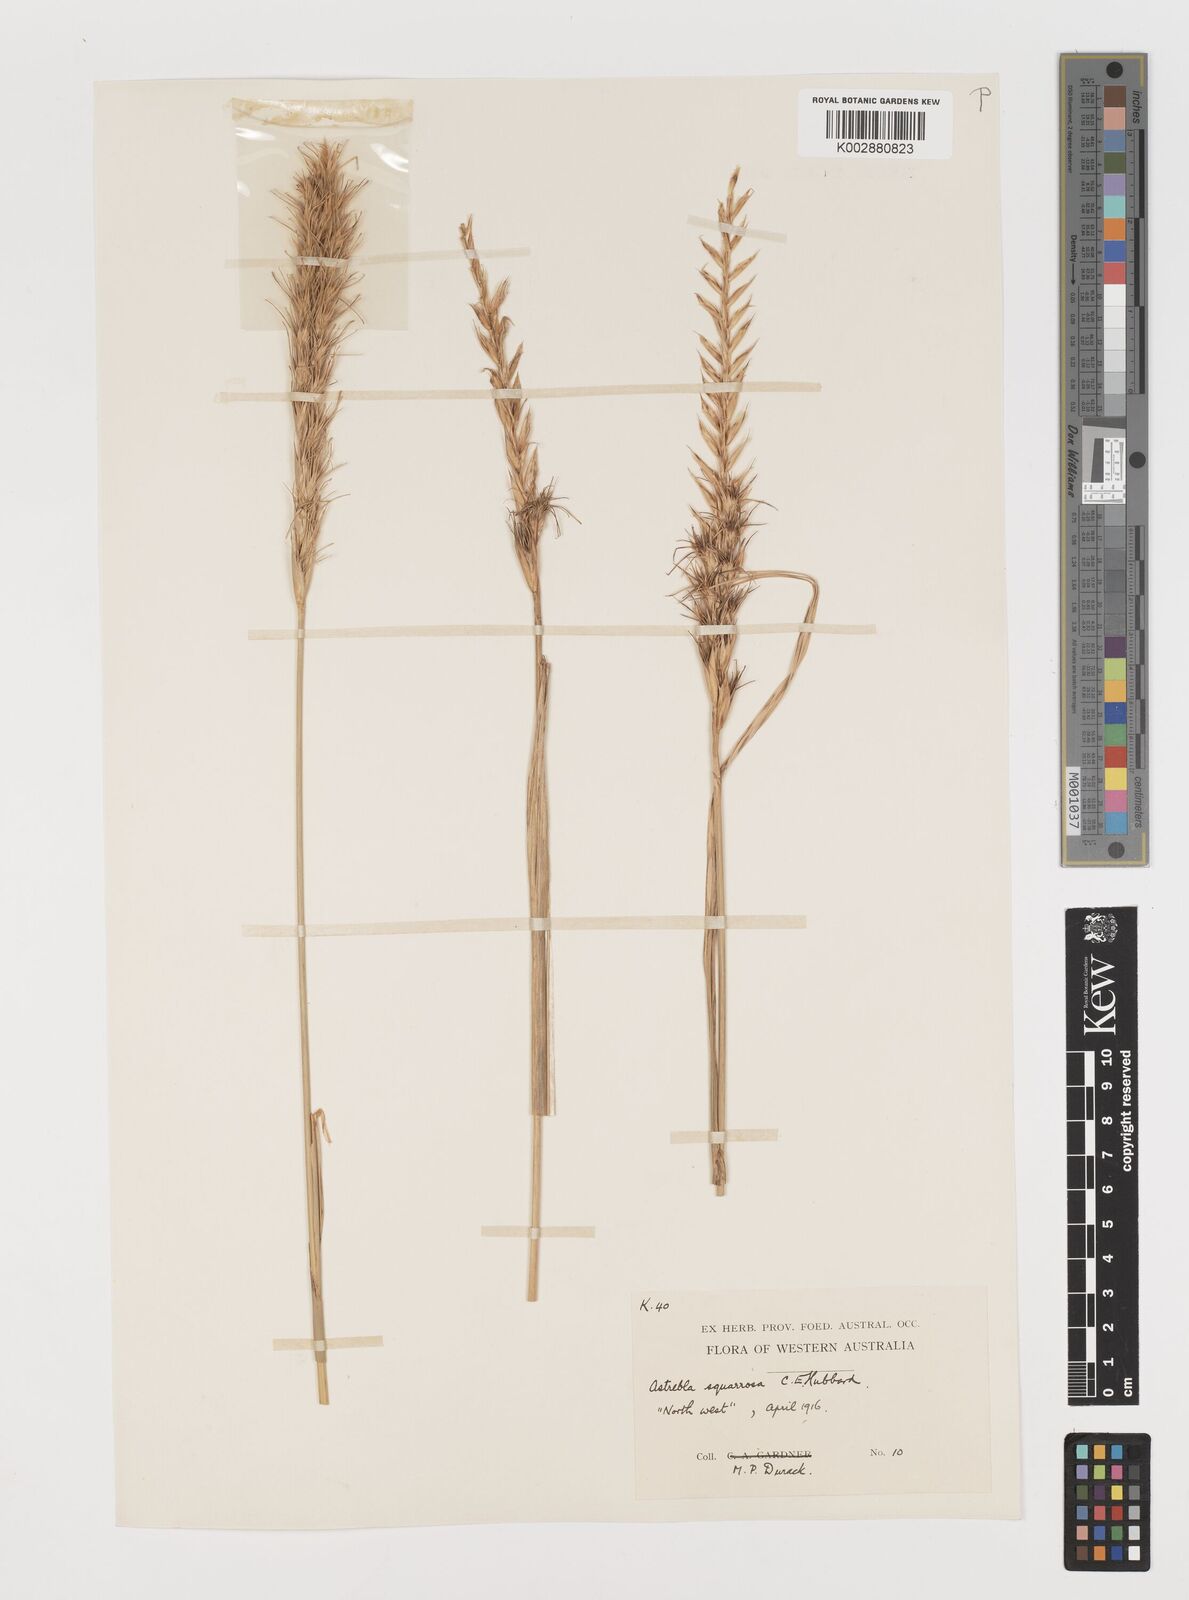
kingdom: Plantae
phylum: Tracheophyta
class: Liliopsida
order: Poales
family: Poaceae
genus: Astrebla
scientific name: Astrebla squarrosa
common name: Wheat-ear mitchell grass
